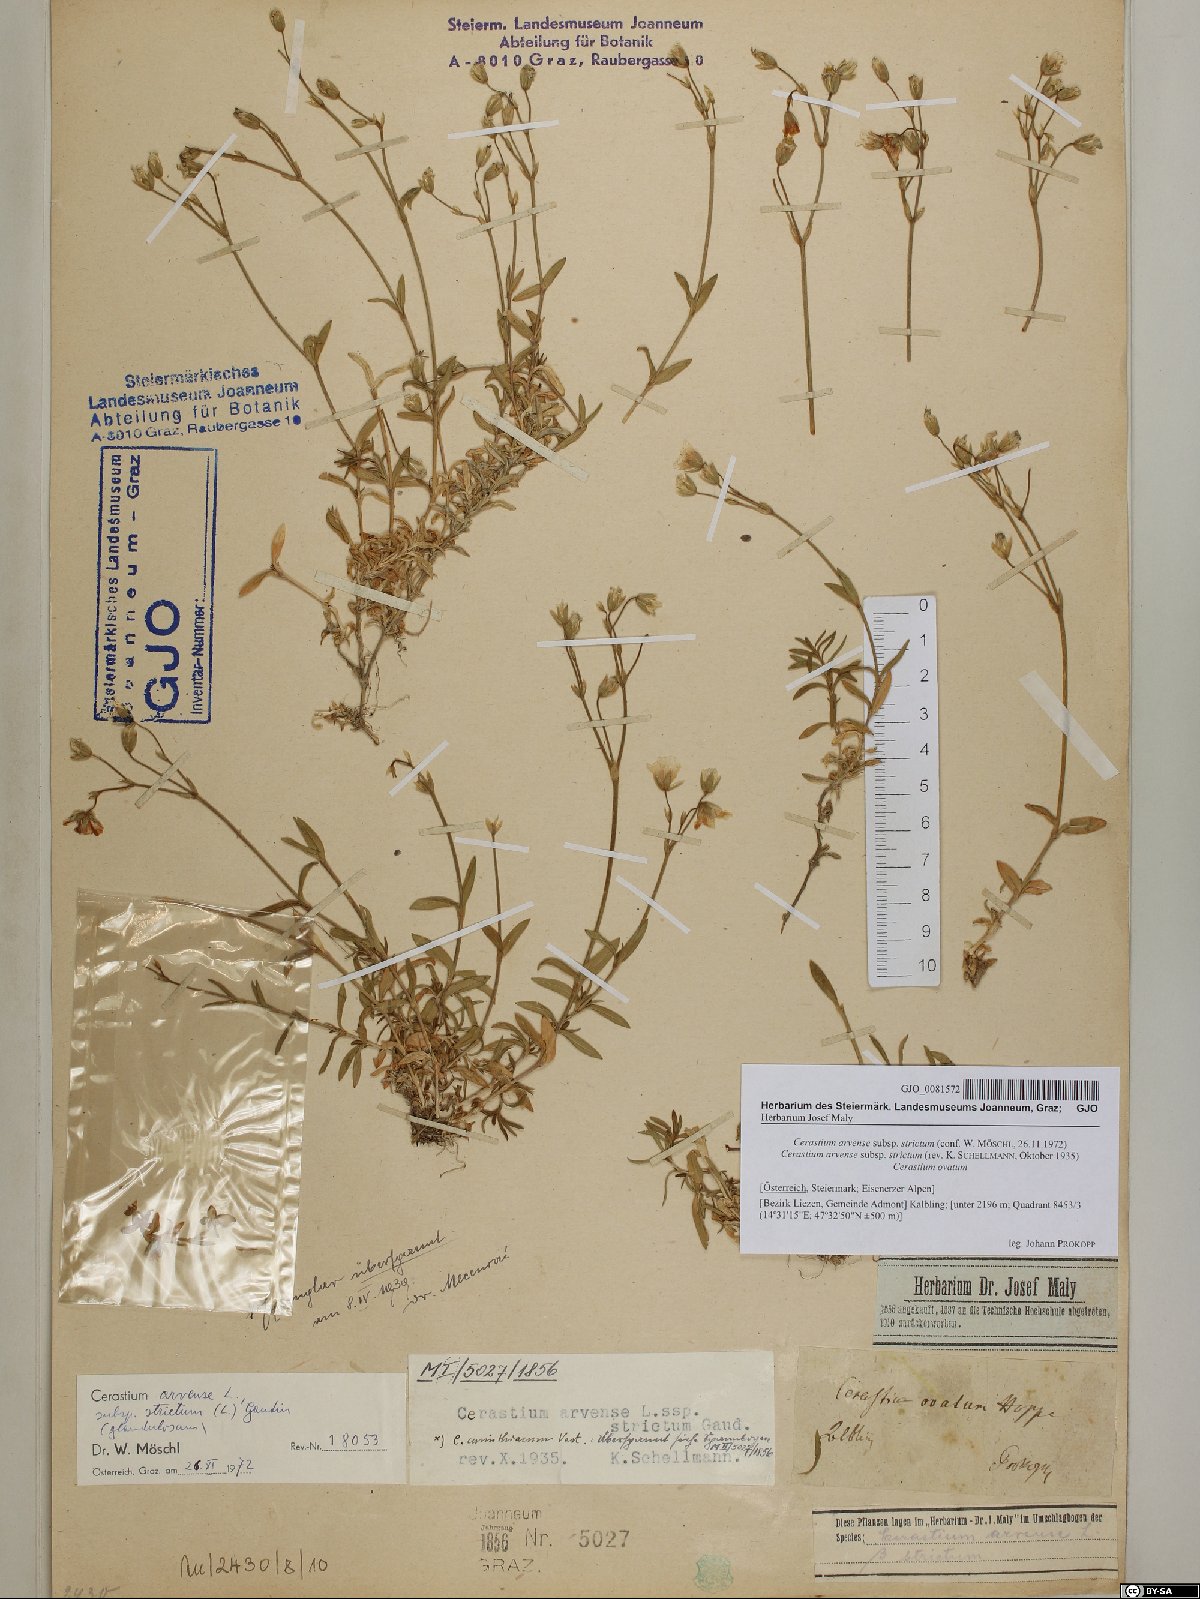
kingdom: Plantae
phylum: Tracheophyta
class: Magnoliopsida
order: Caryophyllales
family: Caryophyllaceae
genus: Cerastium
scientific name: Cerastium elongatum
